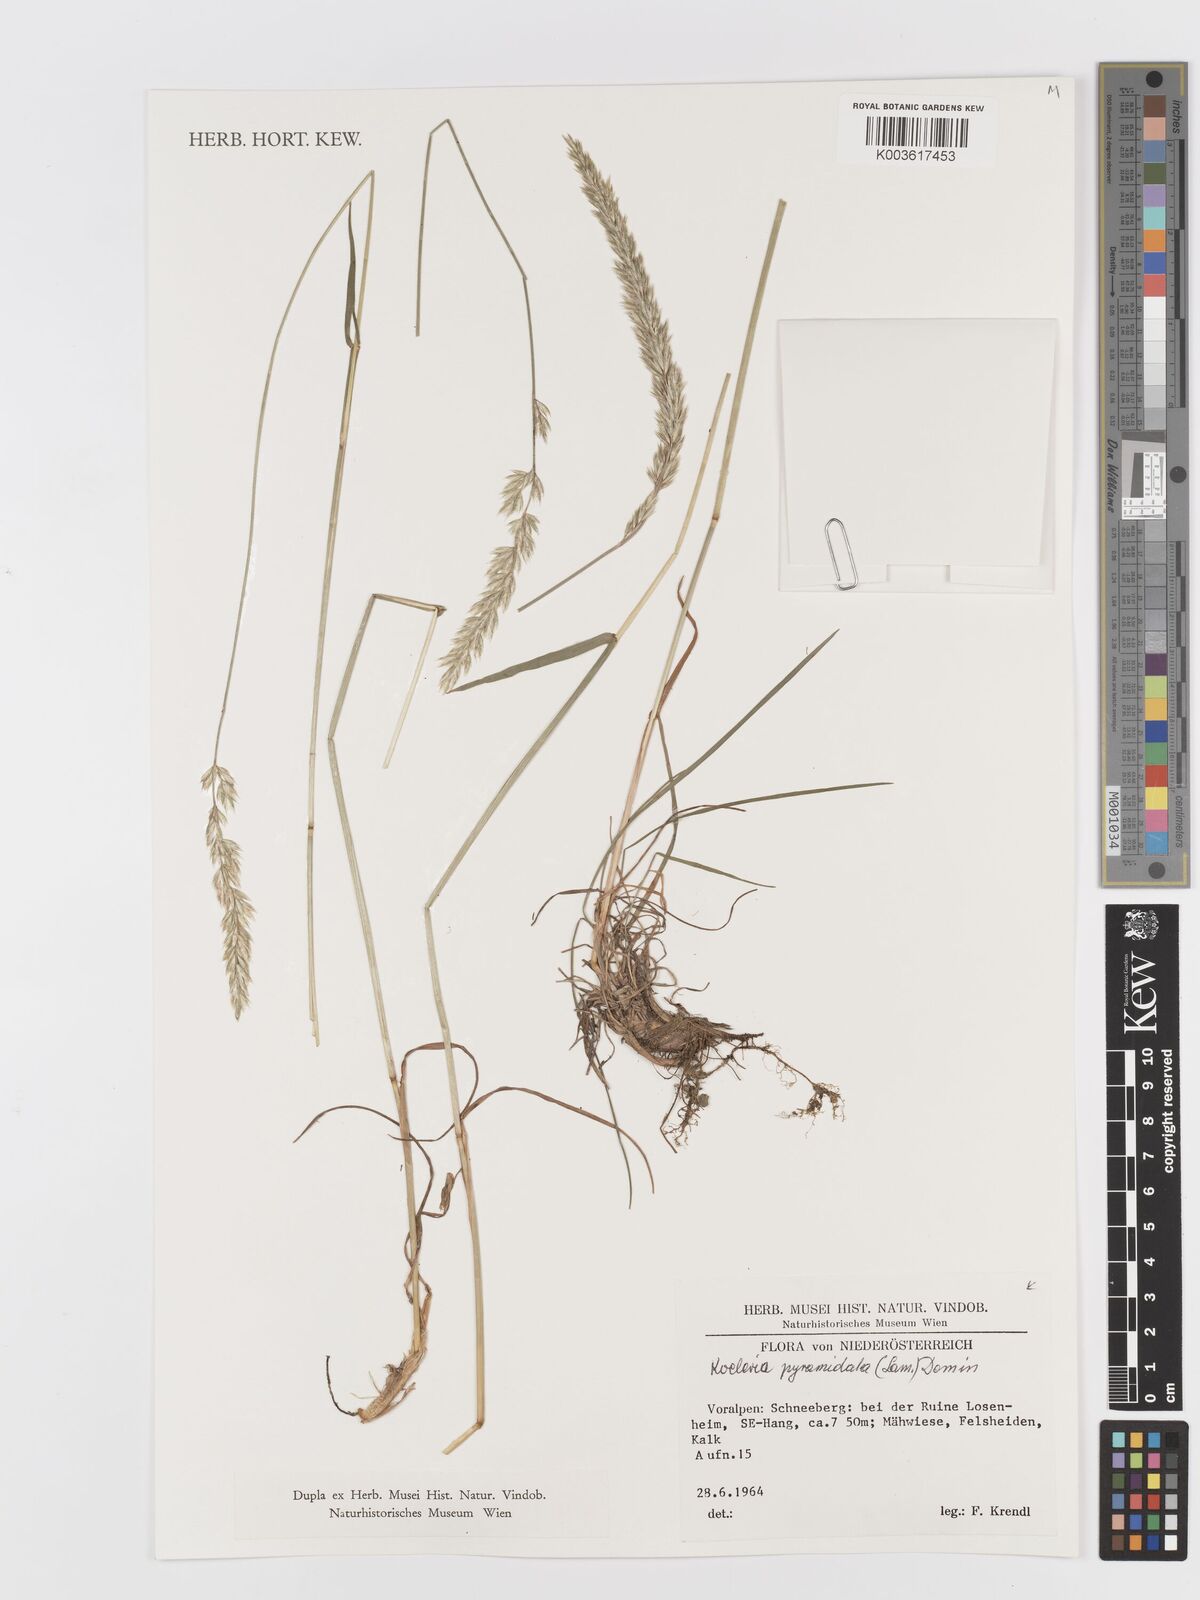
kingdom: Plantae
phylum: Tracheophyta
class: Liliopsida
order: Poales
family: Poaceae
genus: Koeleria
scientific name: Koeleria pyramidata
